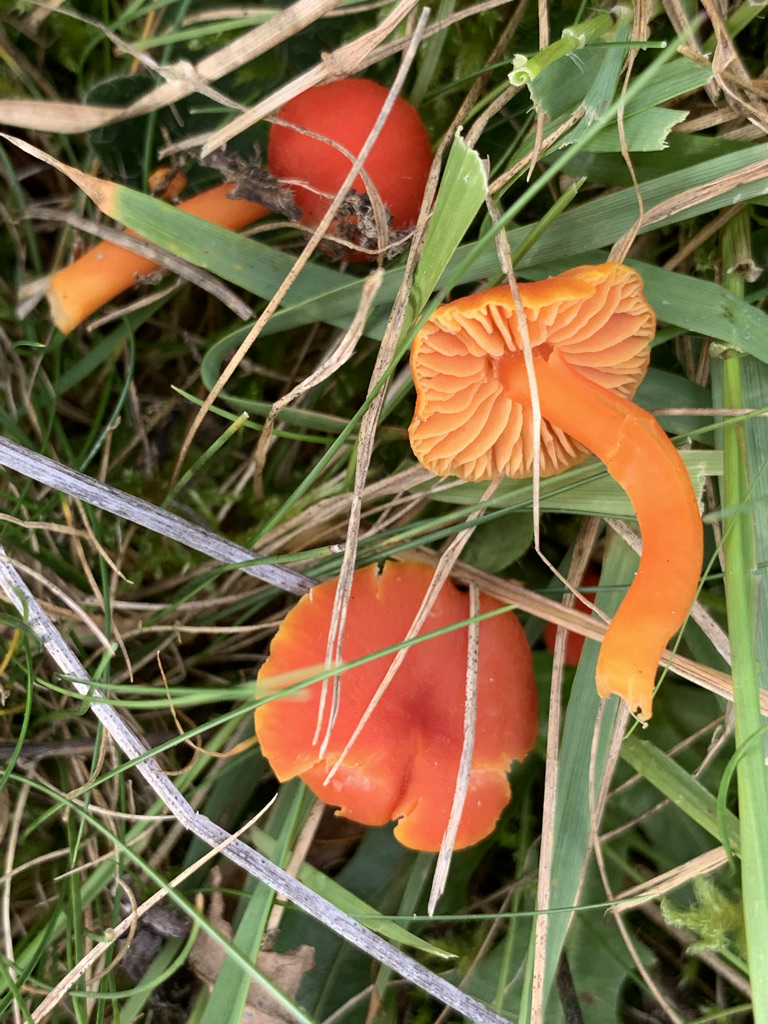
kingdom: Fungi
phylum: Basidiomycota
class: Agaricomycetes
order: Agaricales
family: Hygrophoraceae
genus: Hygrocybe
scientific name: Hygrocybe miniata
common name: mønje-vokshat
